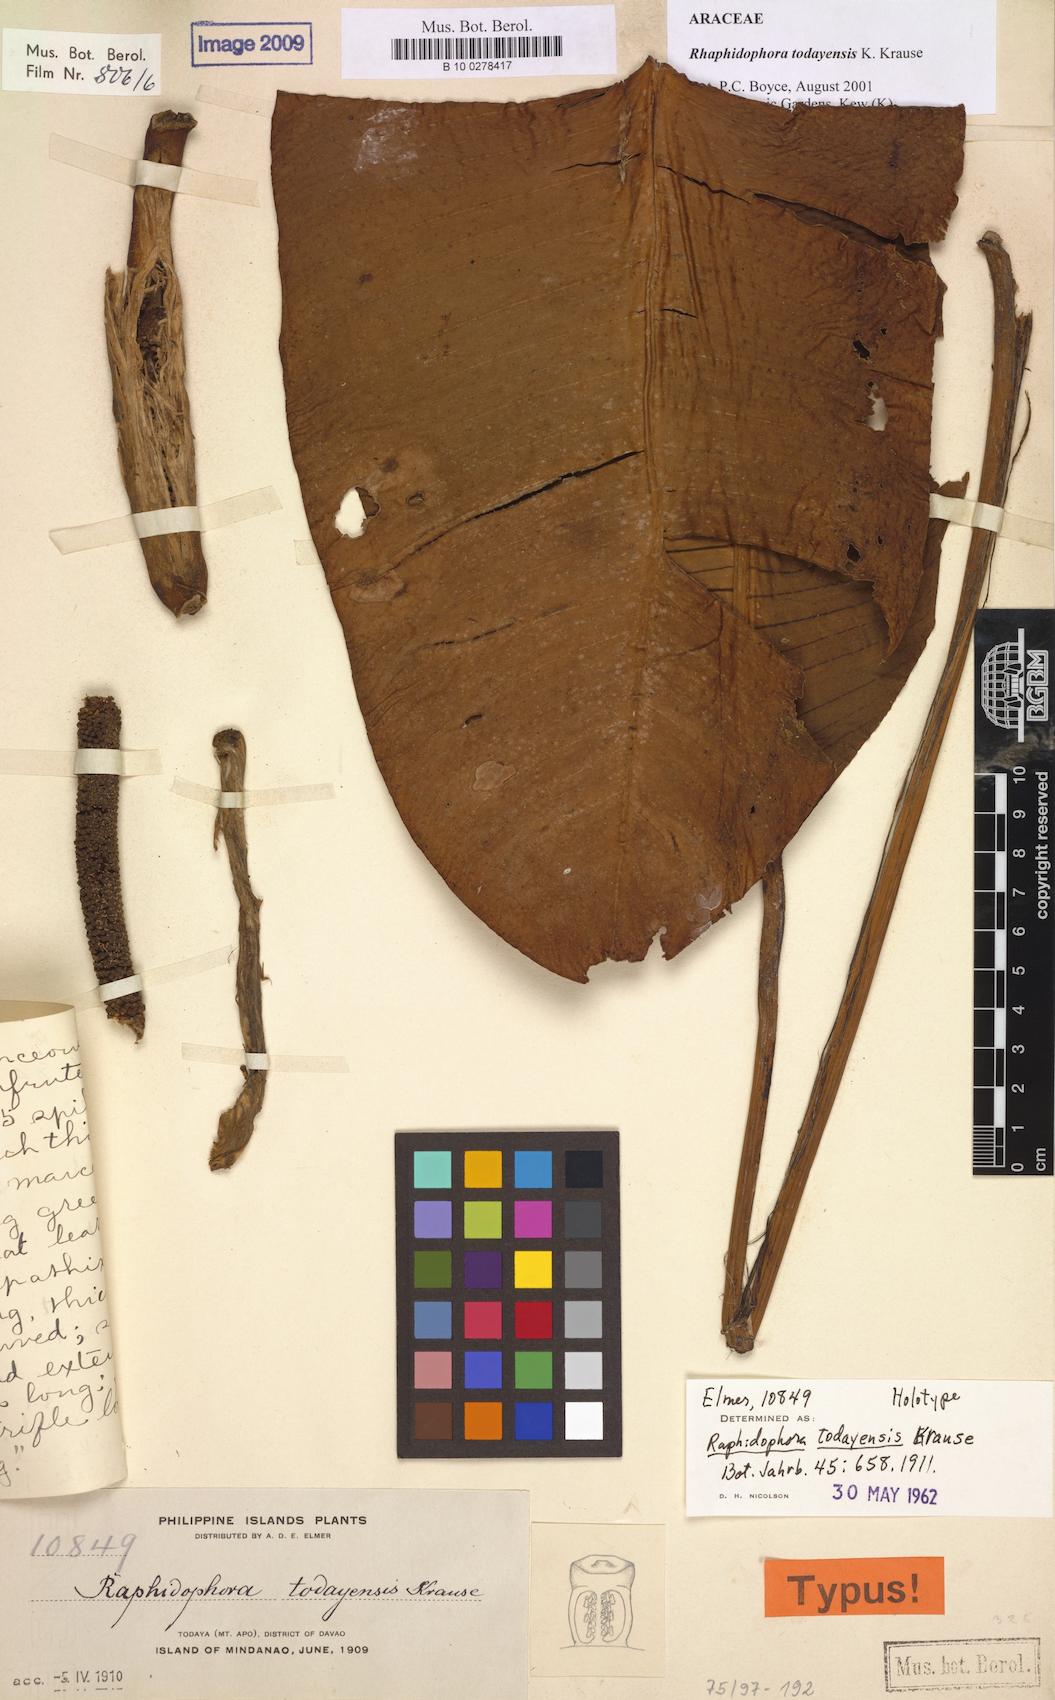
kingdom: Plantae
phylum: Tracheophyta
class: Liliopsida
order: Alismatales
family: Araceae
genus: Rhaphidophora
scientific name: Rhaphidophora todayensis
